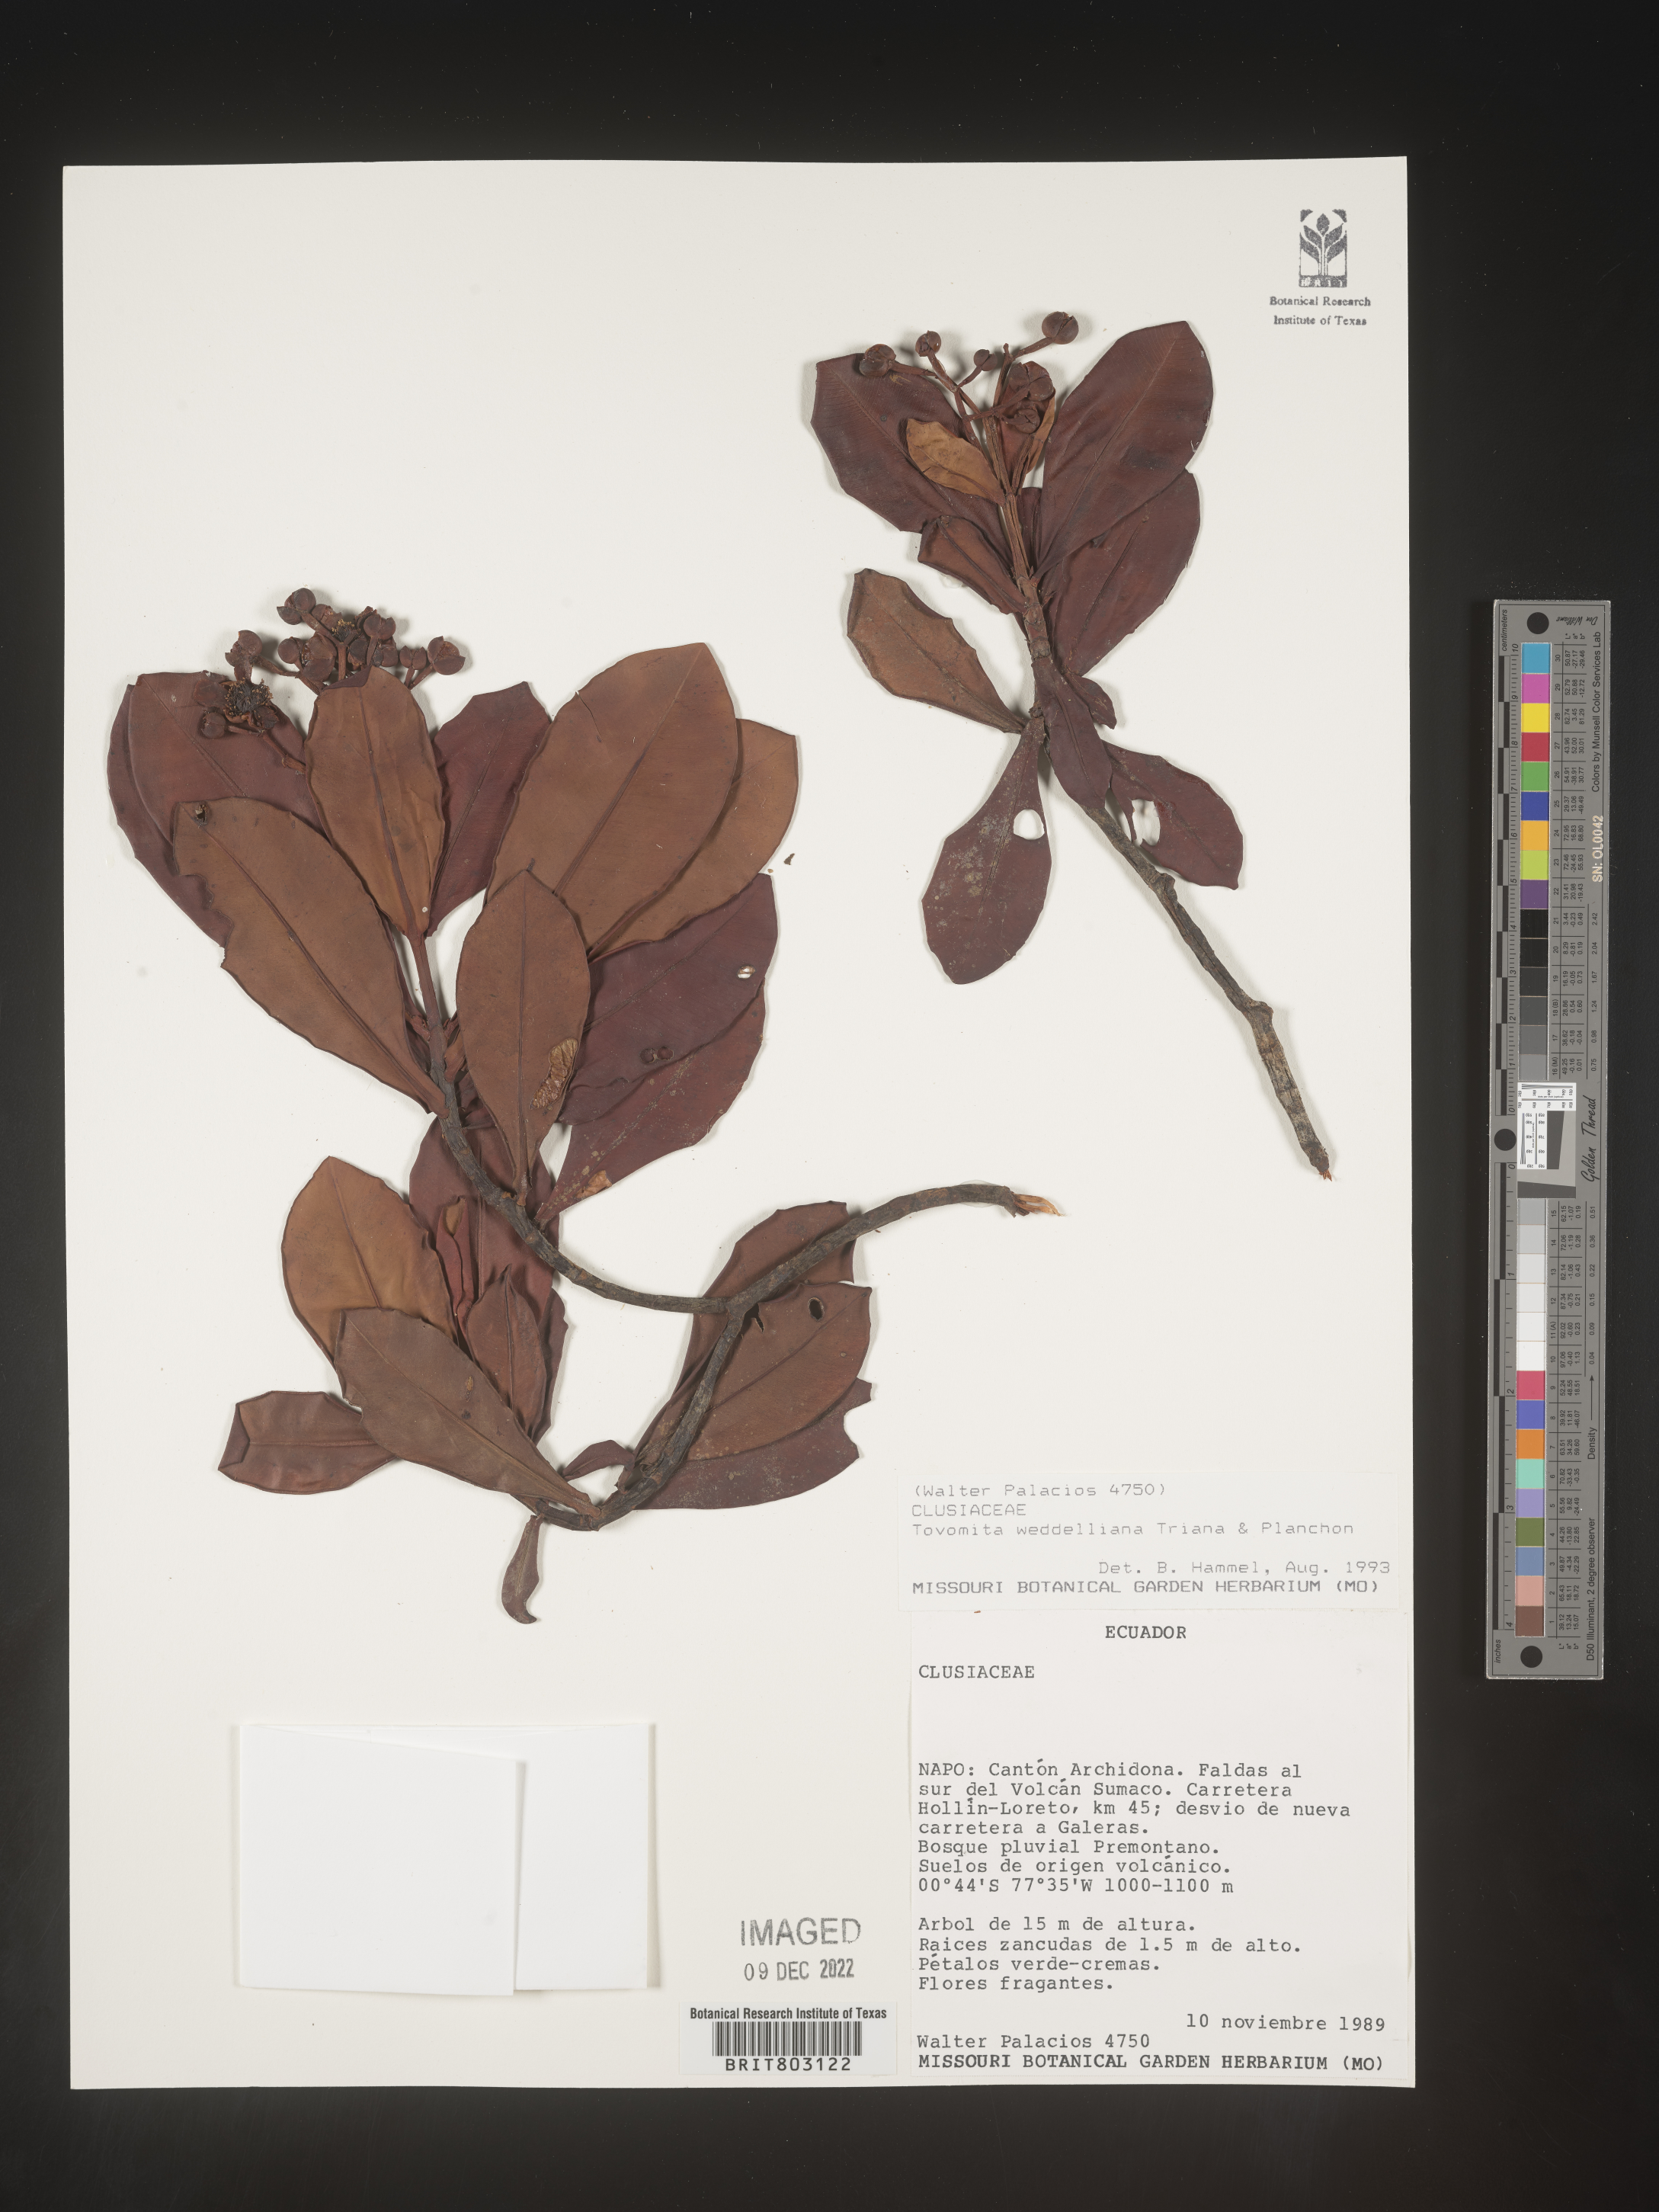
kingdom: Plantae
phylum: Tracheophyta
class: Magnoliopsida
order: Malpighiales
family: Clusiaceae
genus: Arawakia
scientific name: Arawakia weddelliana
